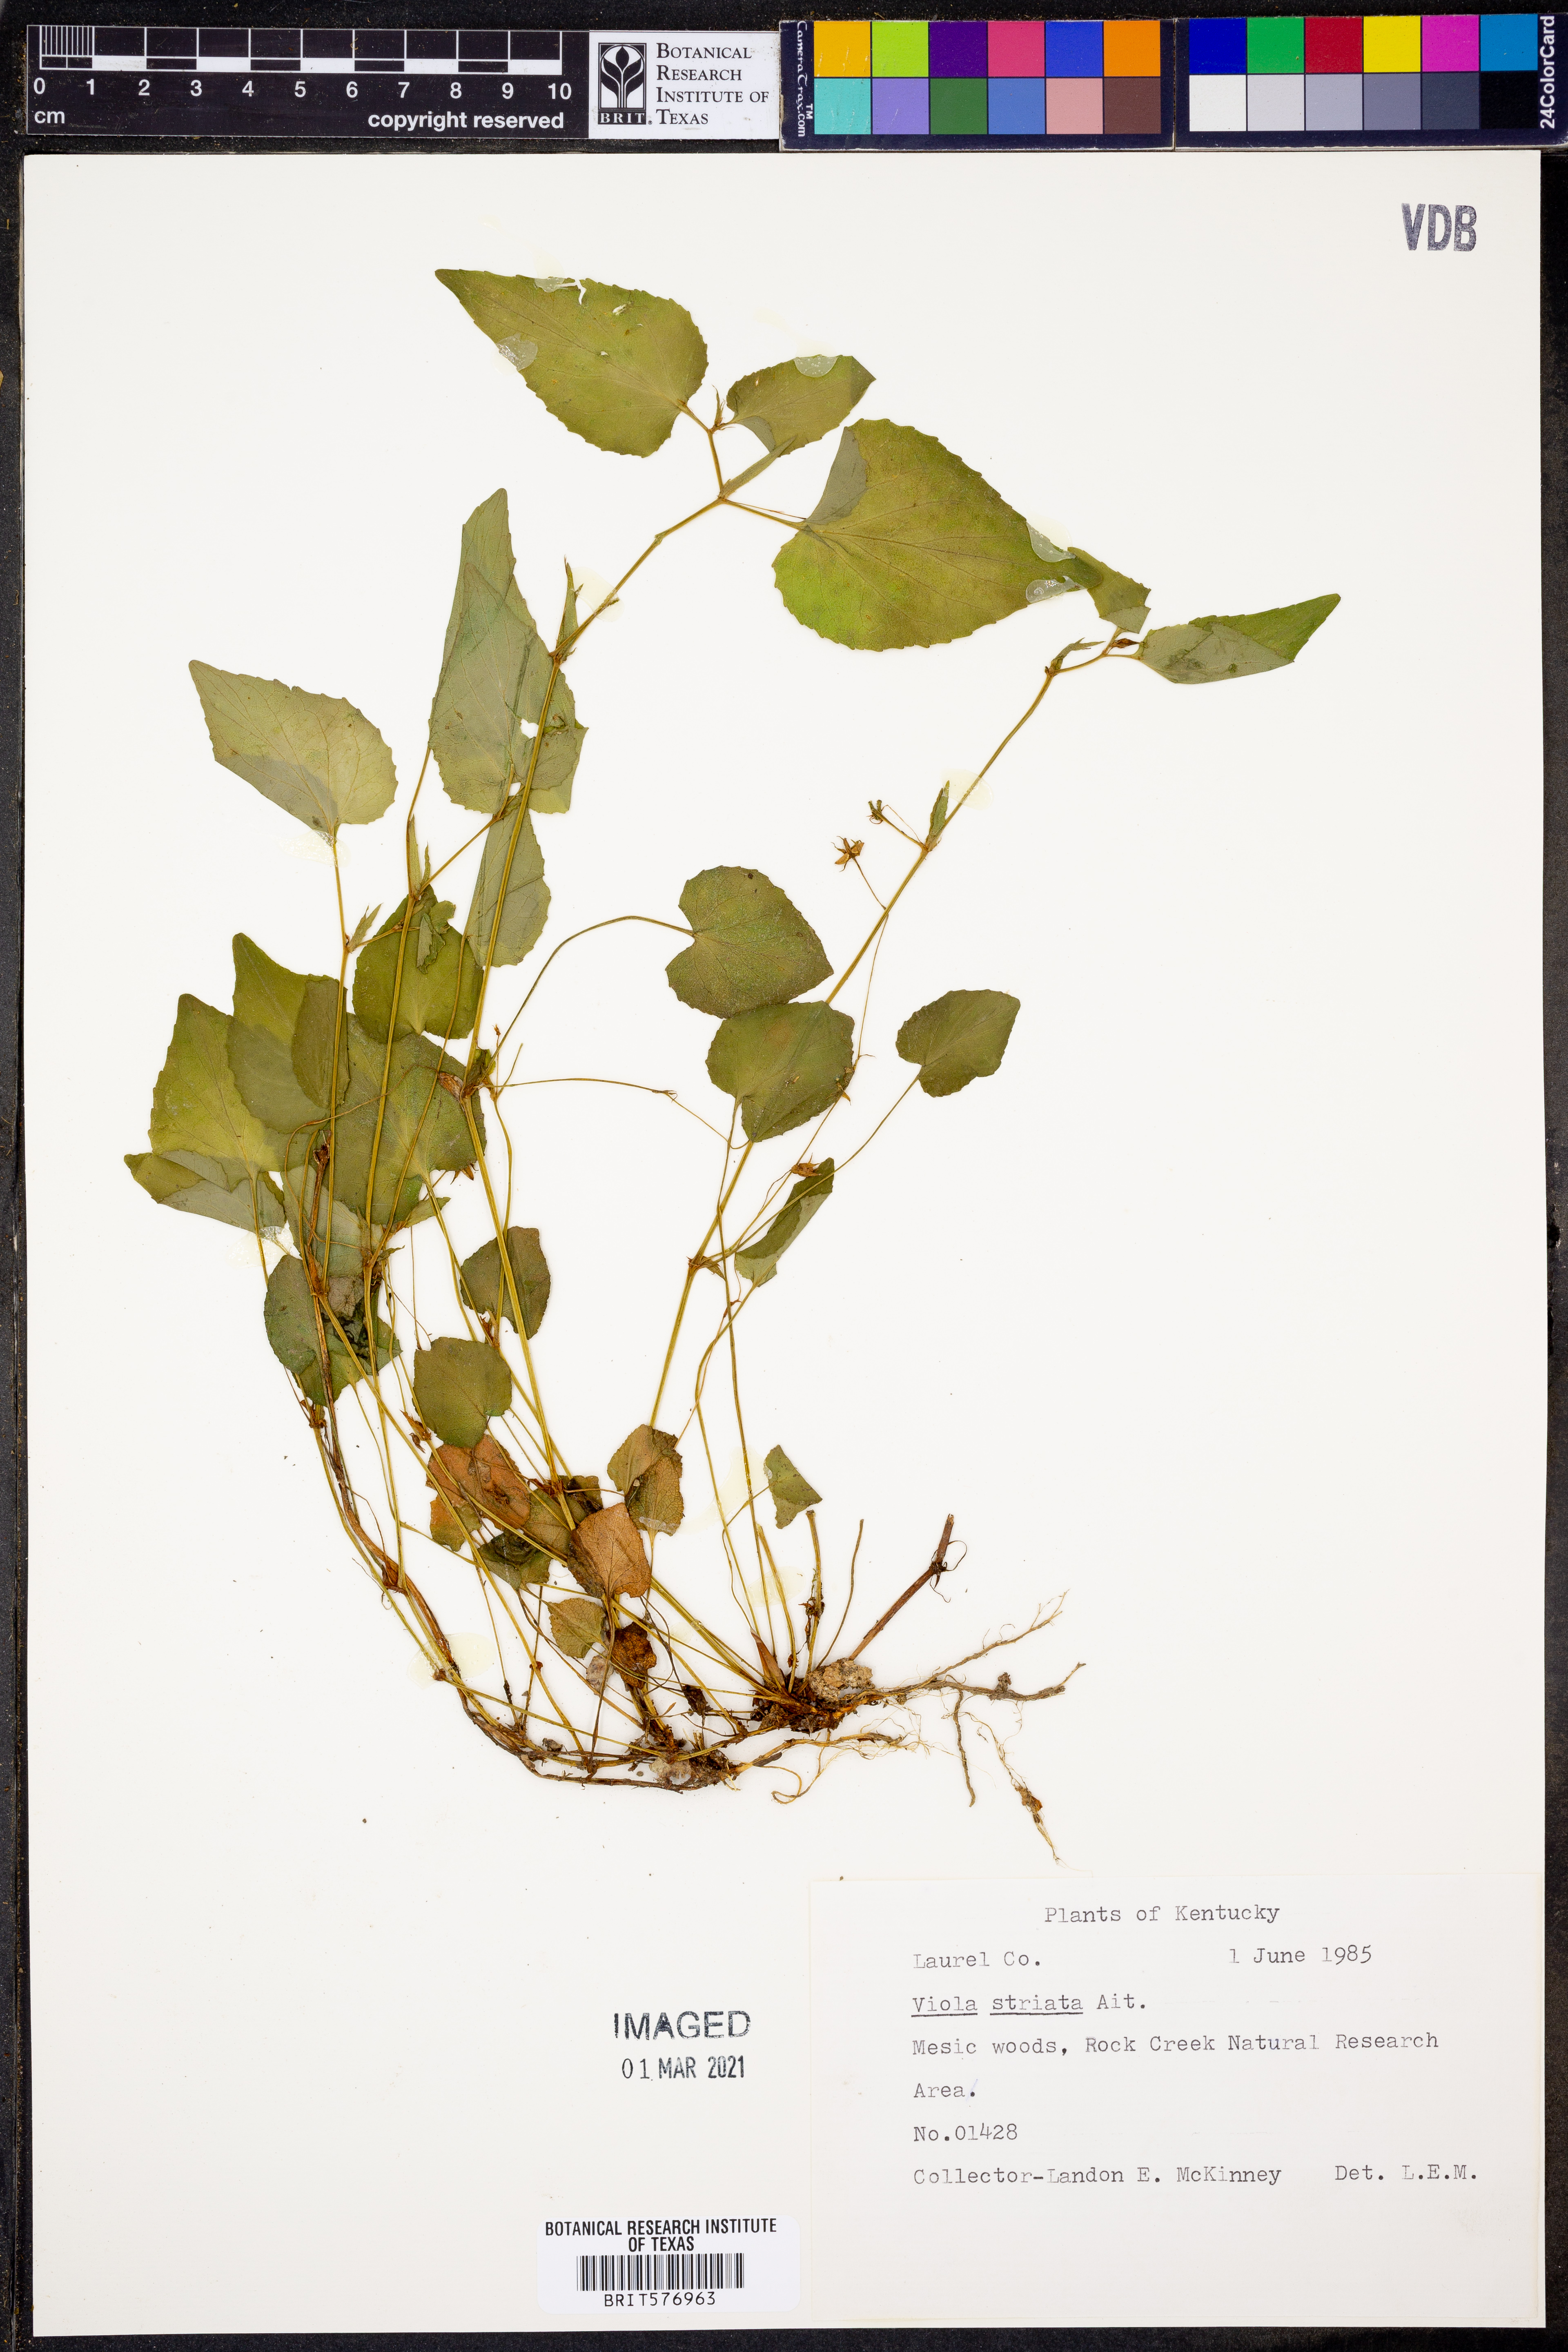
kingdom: Plantae
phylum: Tracheophyta
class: Magnoliopsida
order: Malpighiales
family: Violaceae
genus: Viola
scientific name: Viola striata
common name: Cream violet
